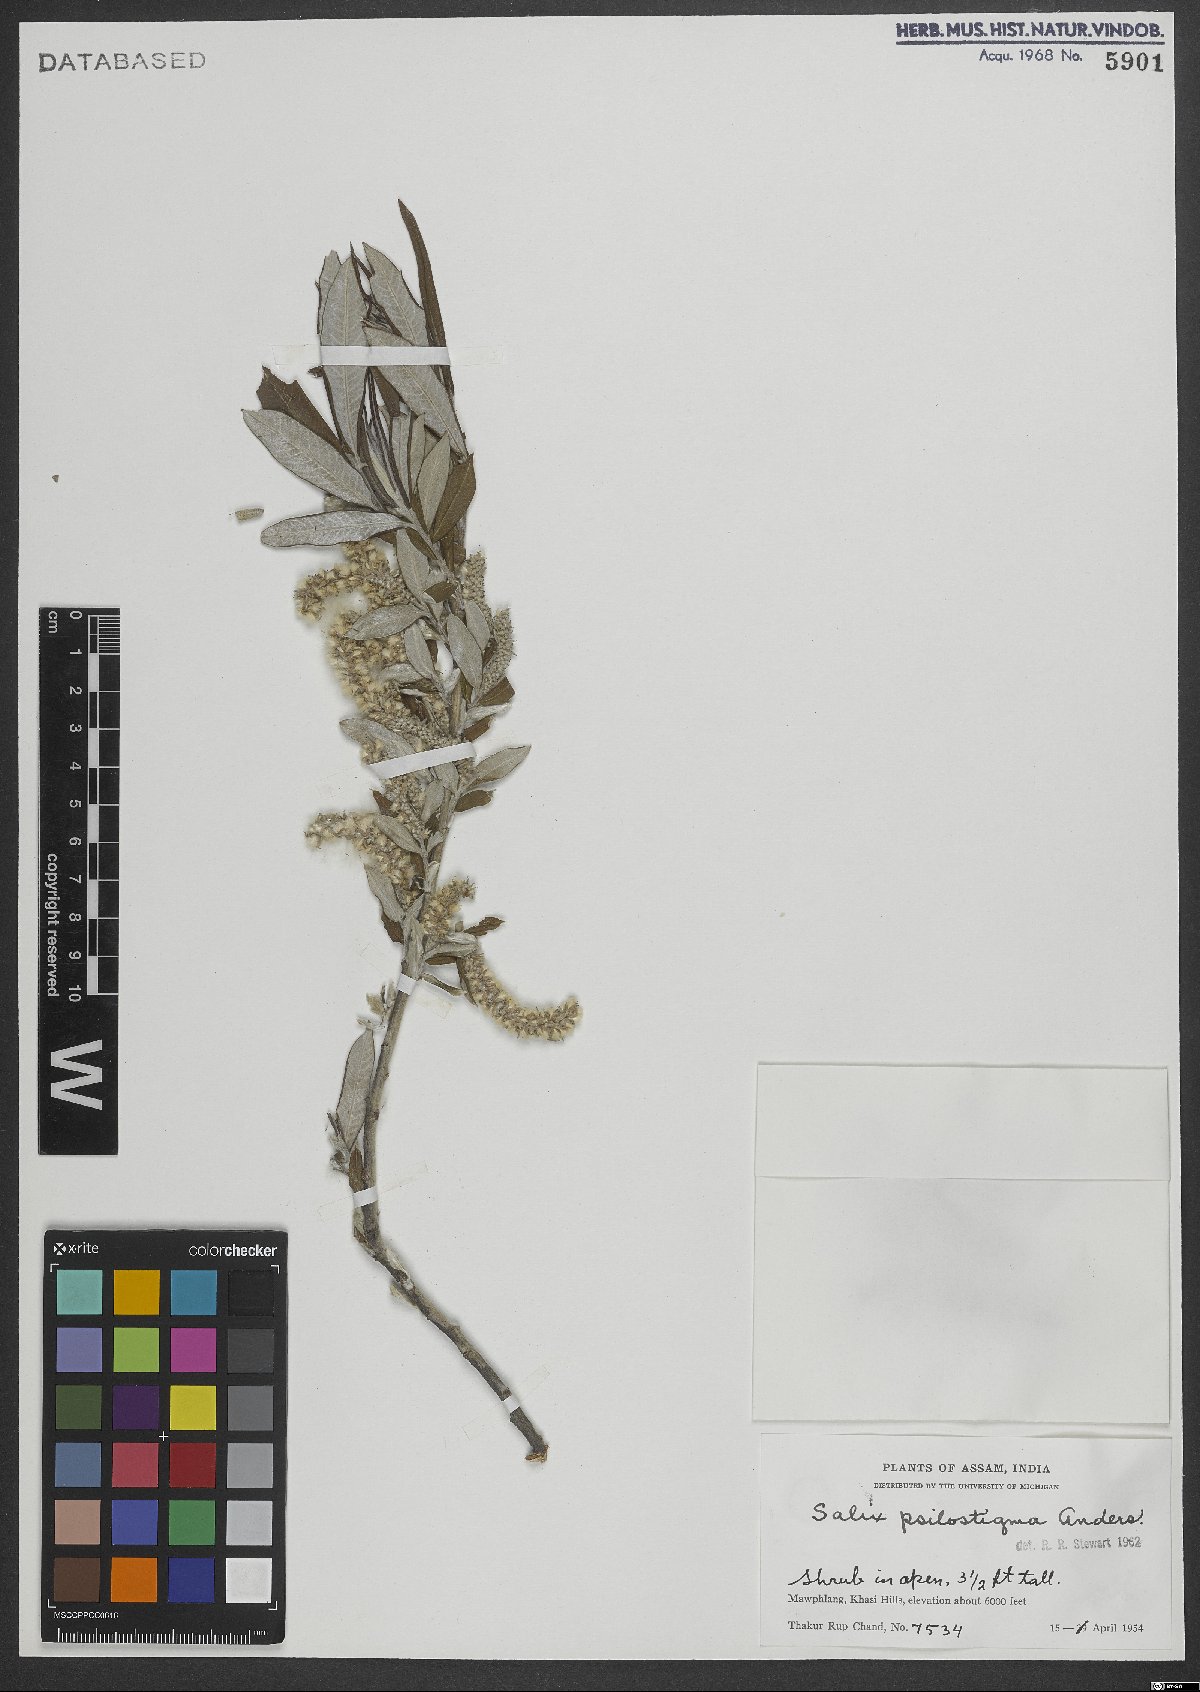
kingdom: Plantae
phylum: Tracheophyta
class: Magnoliopsida
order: Malpighiales
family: Salicaceae
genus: Salix
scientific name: Salix psilostigma
